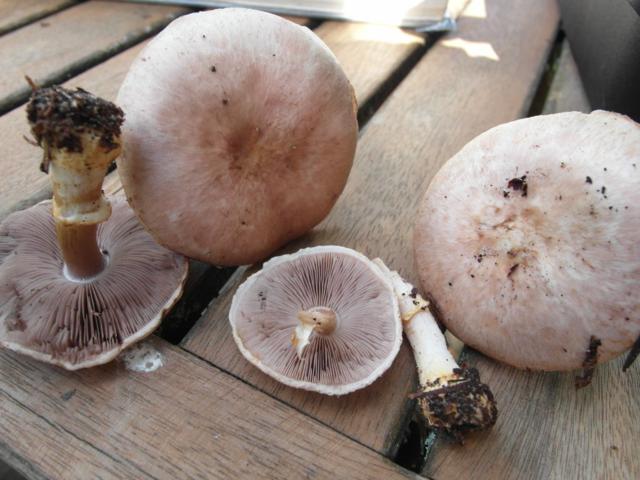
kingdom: Fungi
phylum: Basidiomycota
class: Agaricomycetes
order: Agaricales
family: Agaricaceae
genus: Agaricus
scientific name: Agaricus dulcidulus
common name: blegrød champignon
